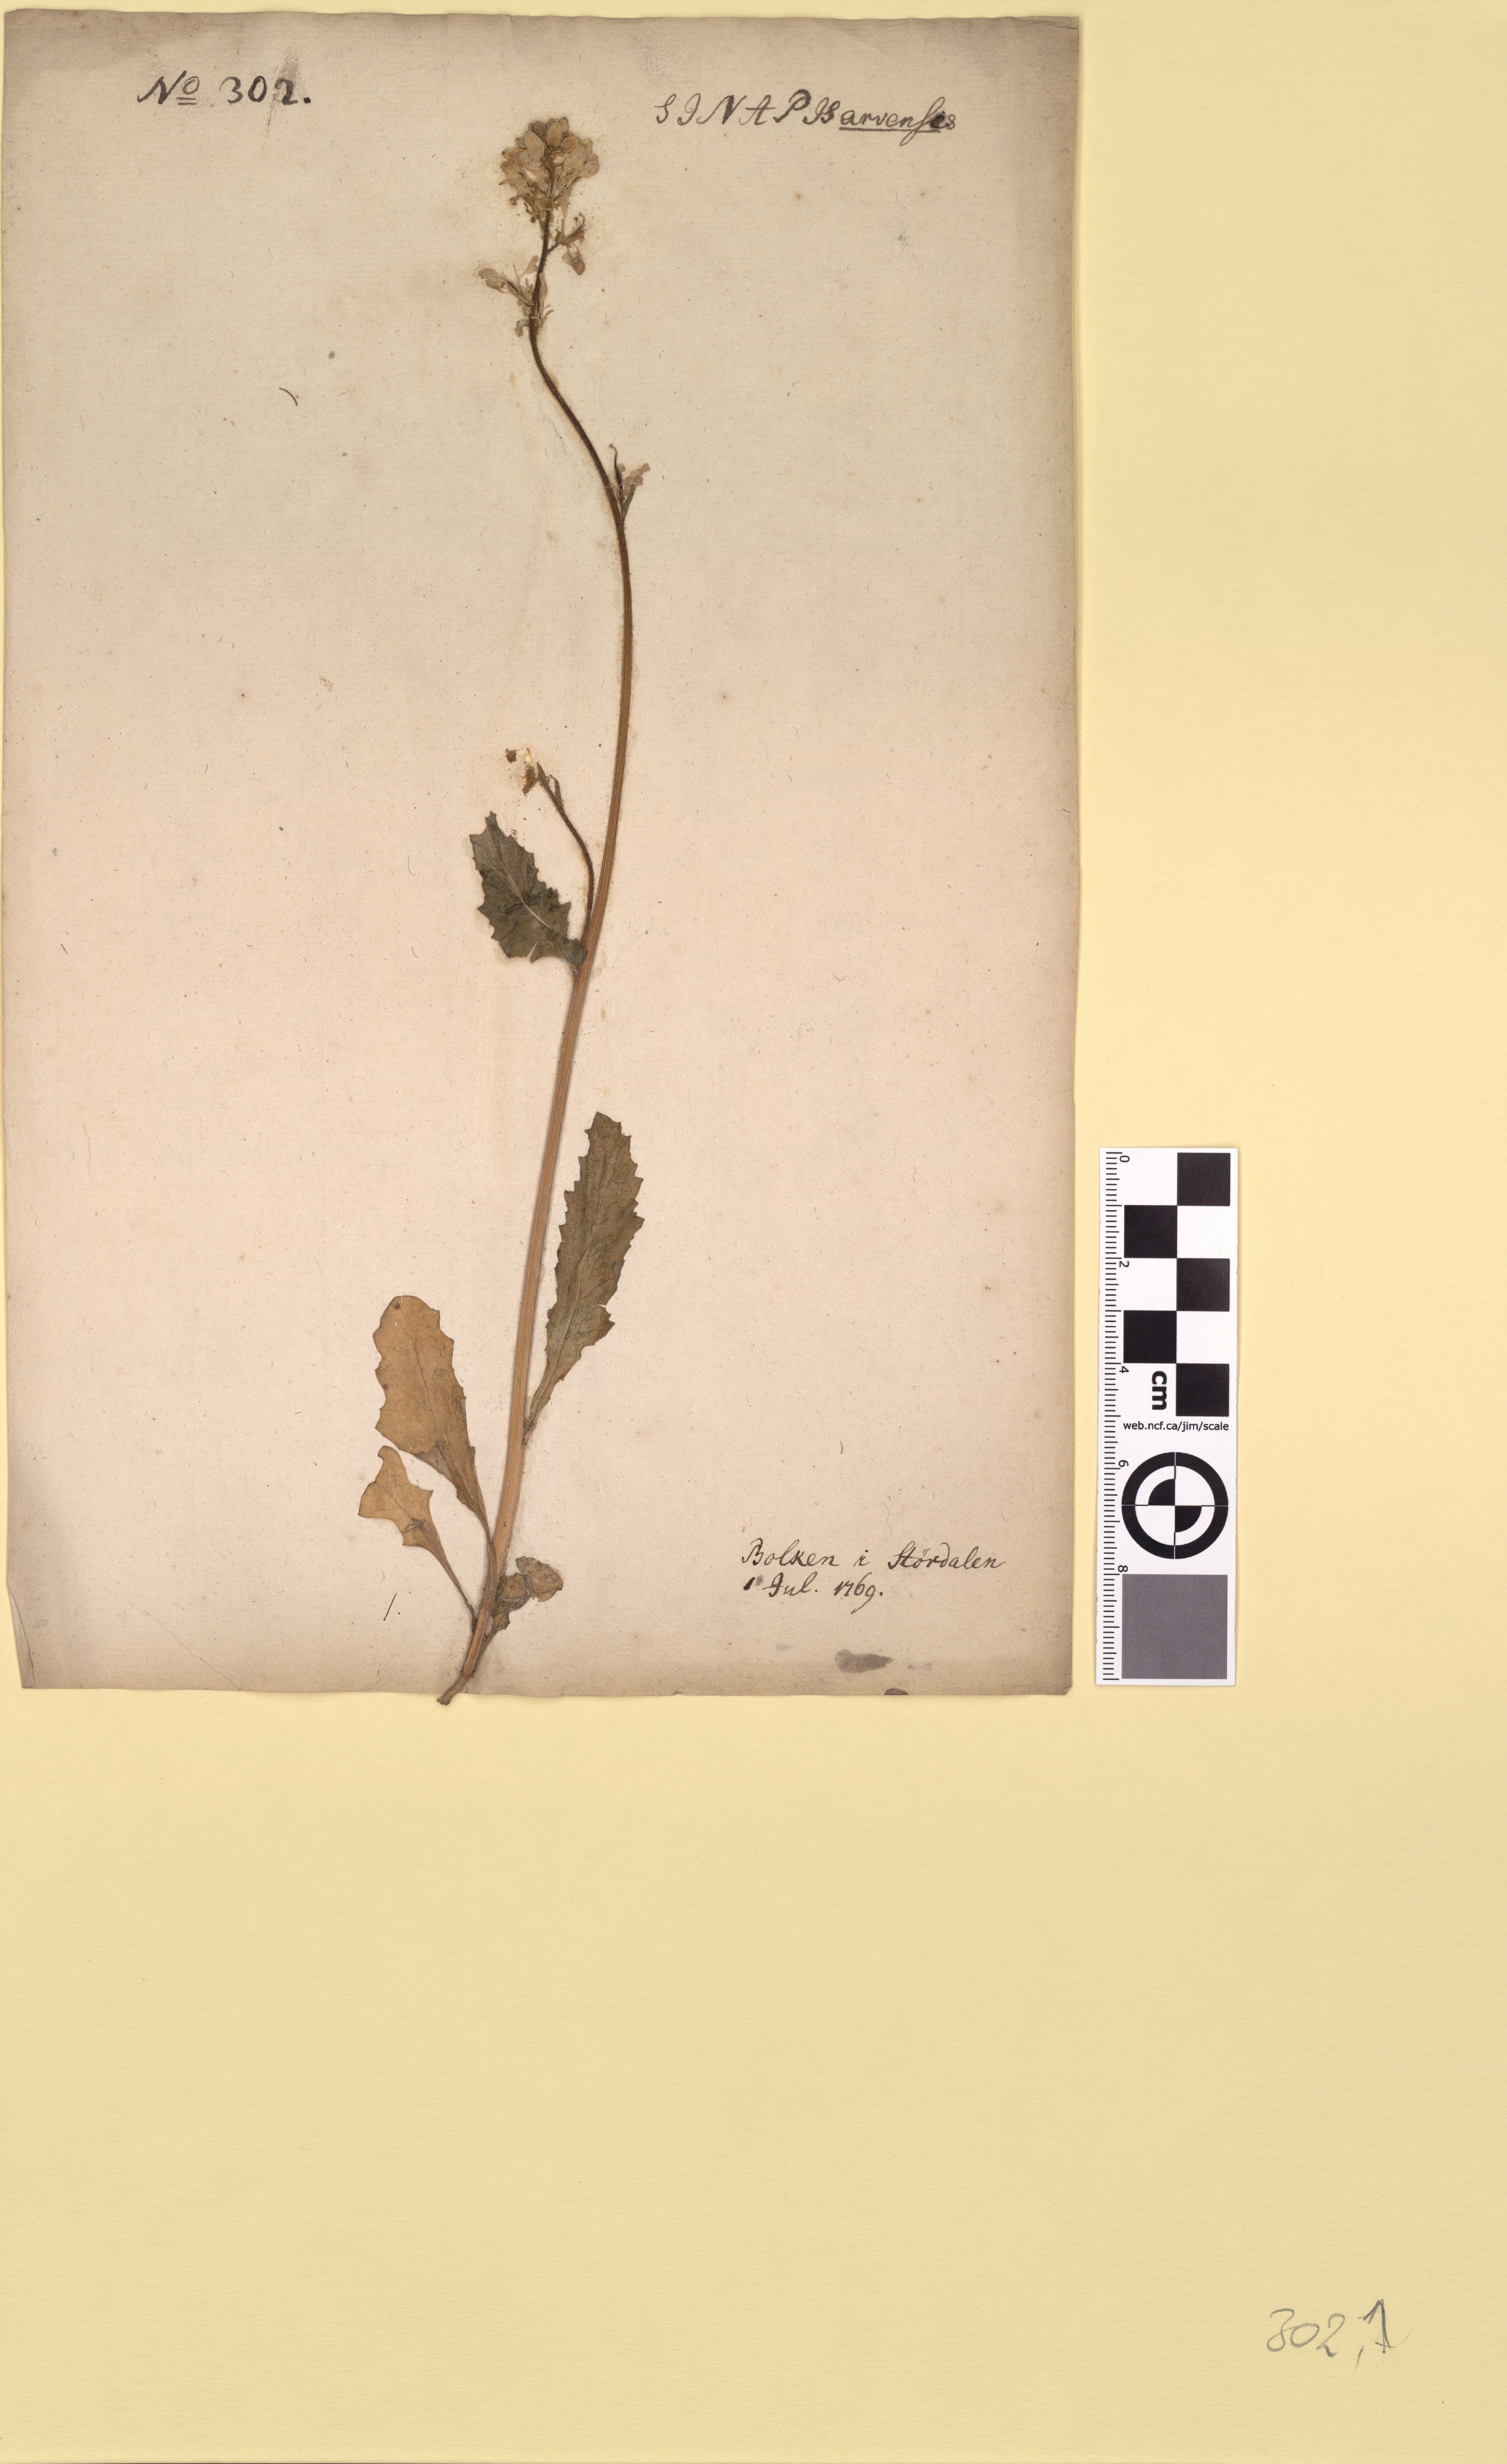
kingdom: Plantae
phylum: Tracheophyta
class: Magnoliopsida
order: Brassicales
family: Brassicaceae
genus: Sinapis
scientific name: Sinapis arvensis
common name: Charlock
